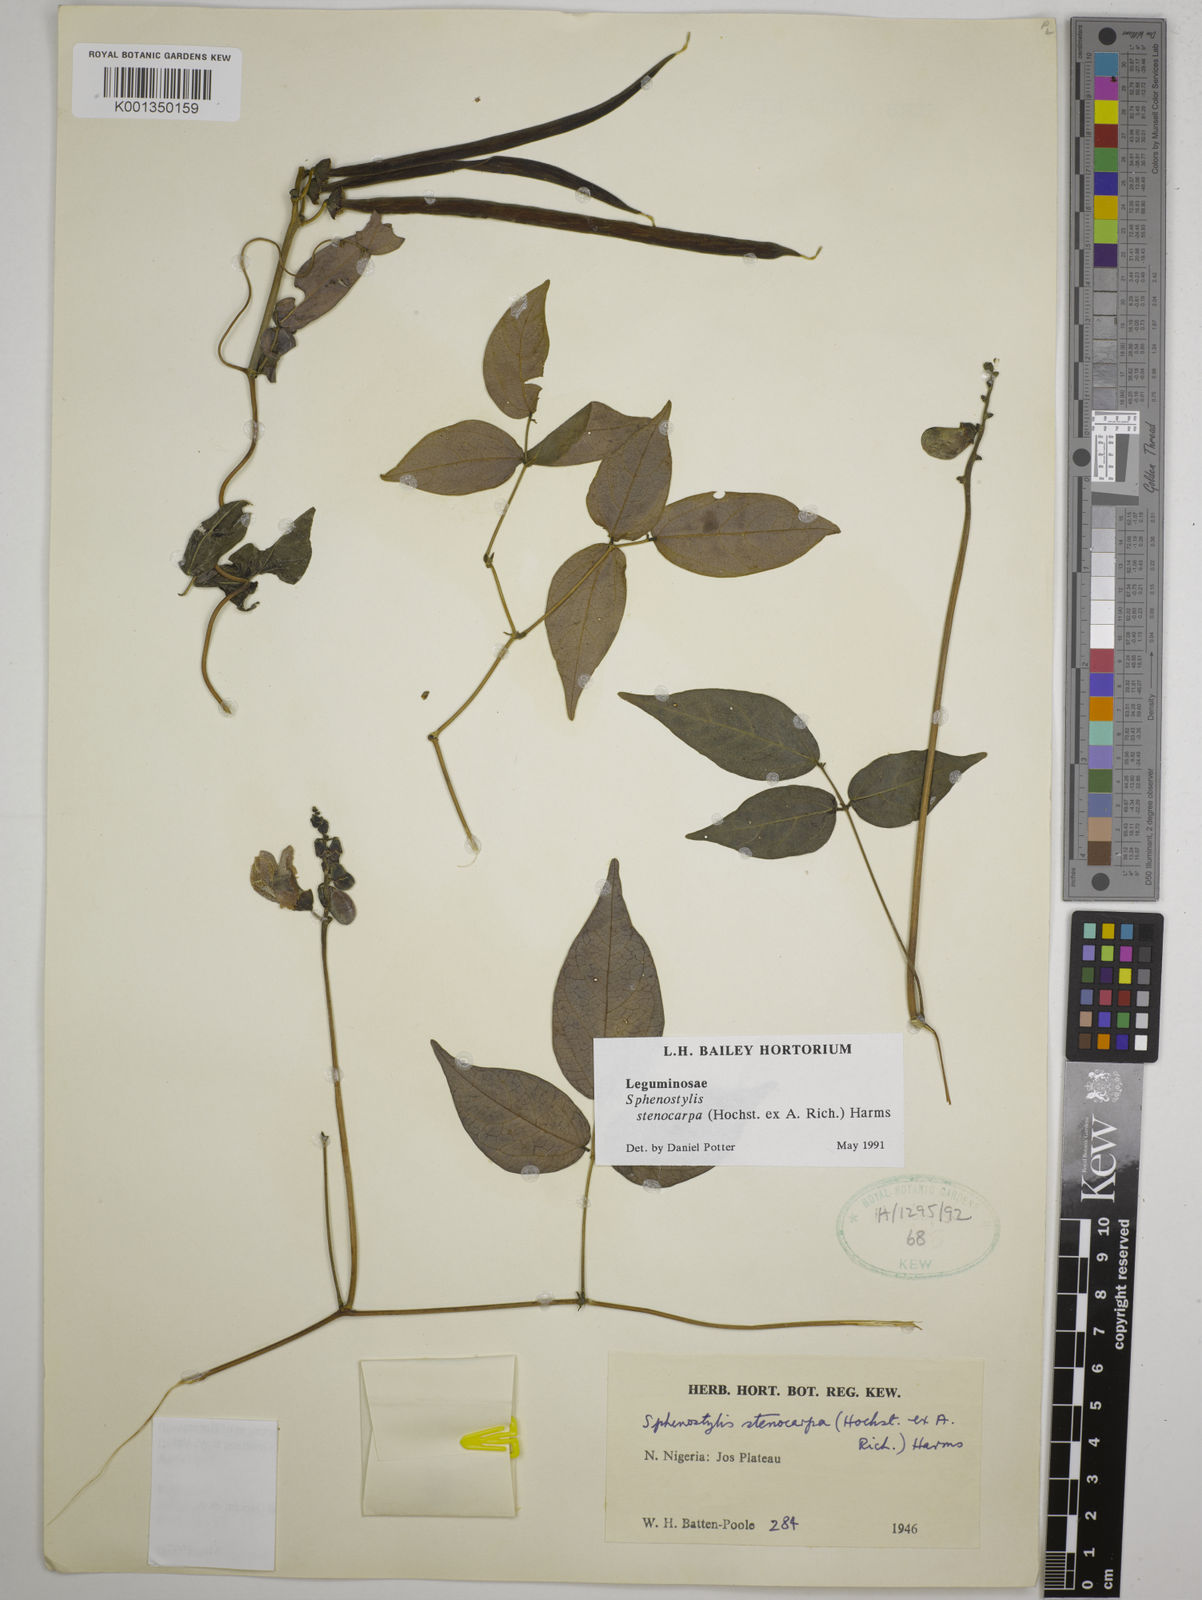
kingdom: Plantae
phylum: Tracheophyta
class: Magnoliopsida
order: Fabales
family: Fabaceae
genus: Sphenostylis
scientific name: Sphenostylis stenocarpa
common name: Yam-pea
